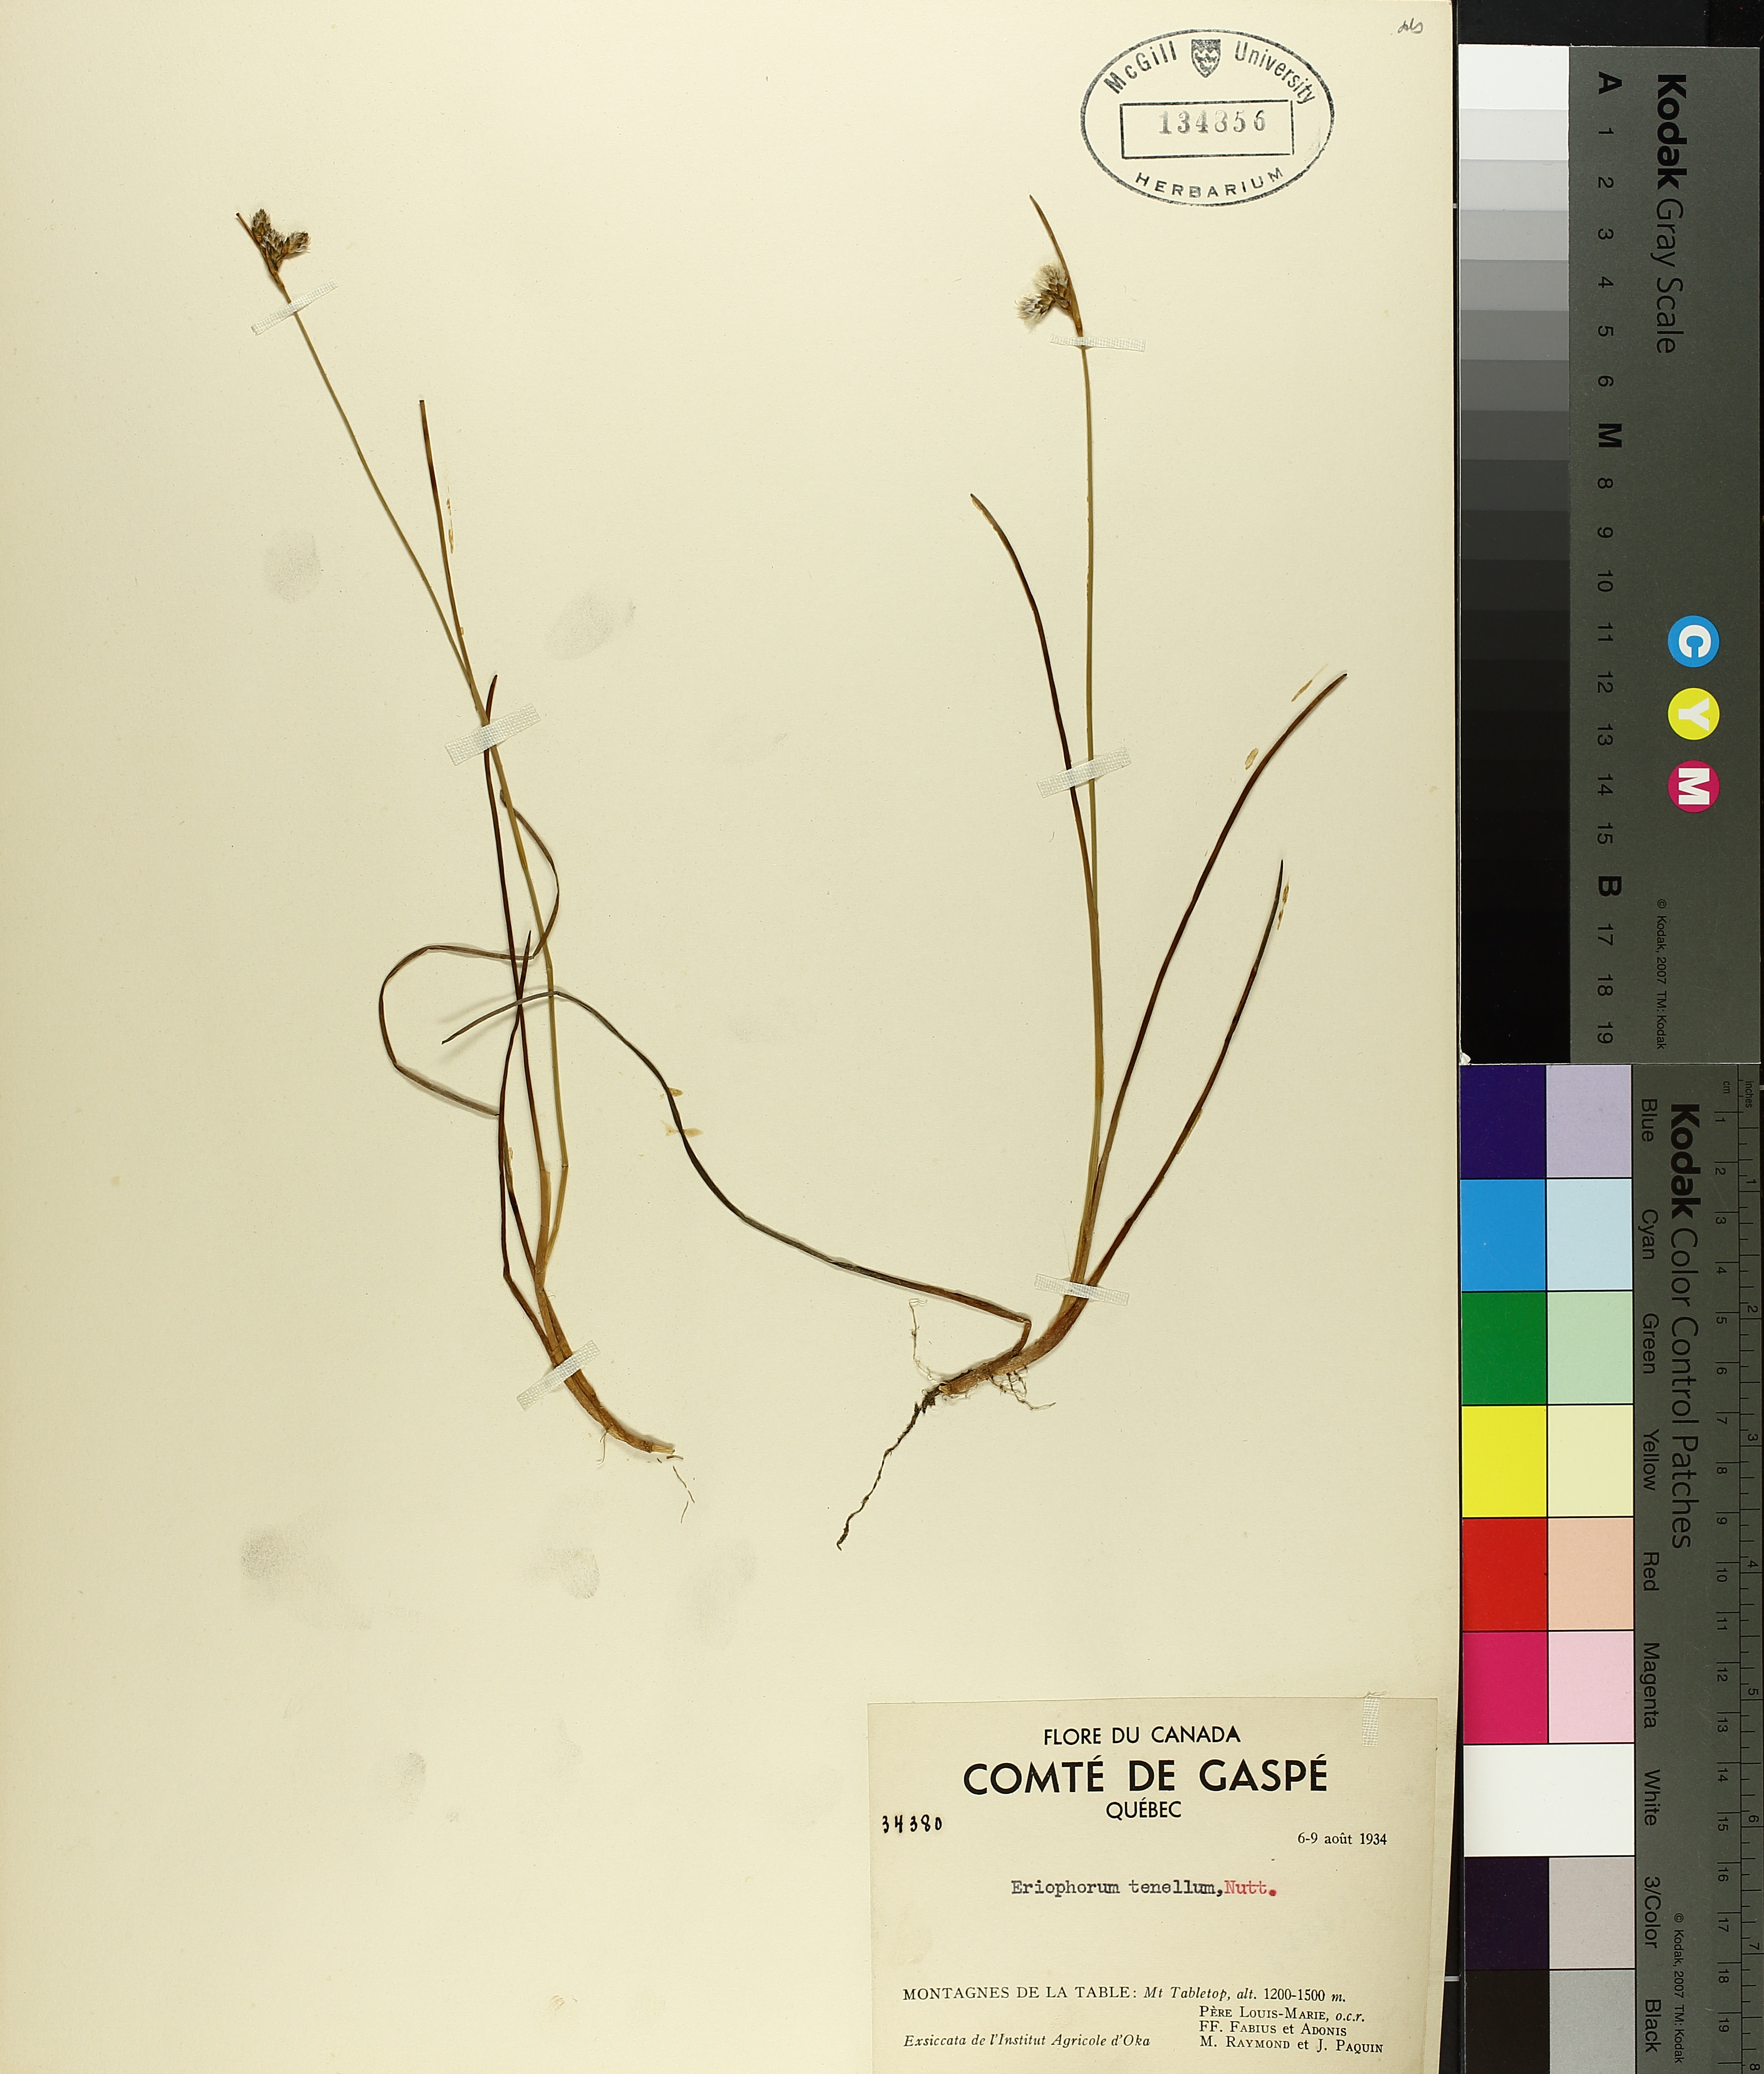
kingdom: Plantae
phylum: Tracheophyta
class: Liliopsida
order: Poales
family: Cyperaceae
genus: Carex
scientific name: Carex fuliginosa
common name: Few-flowered sedge
